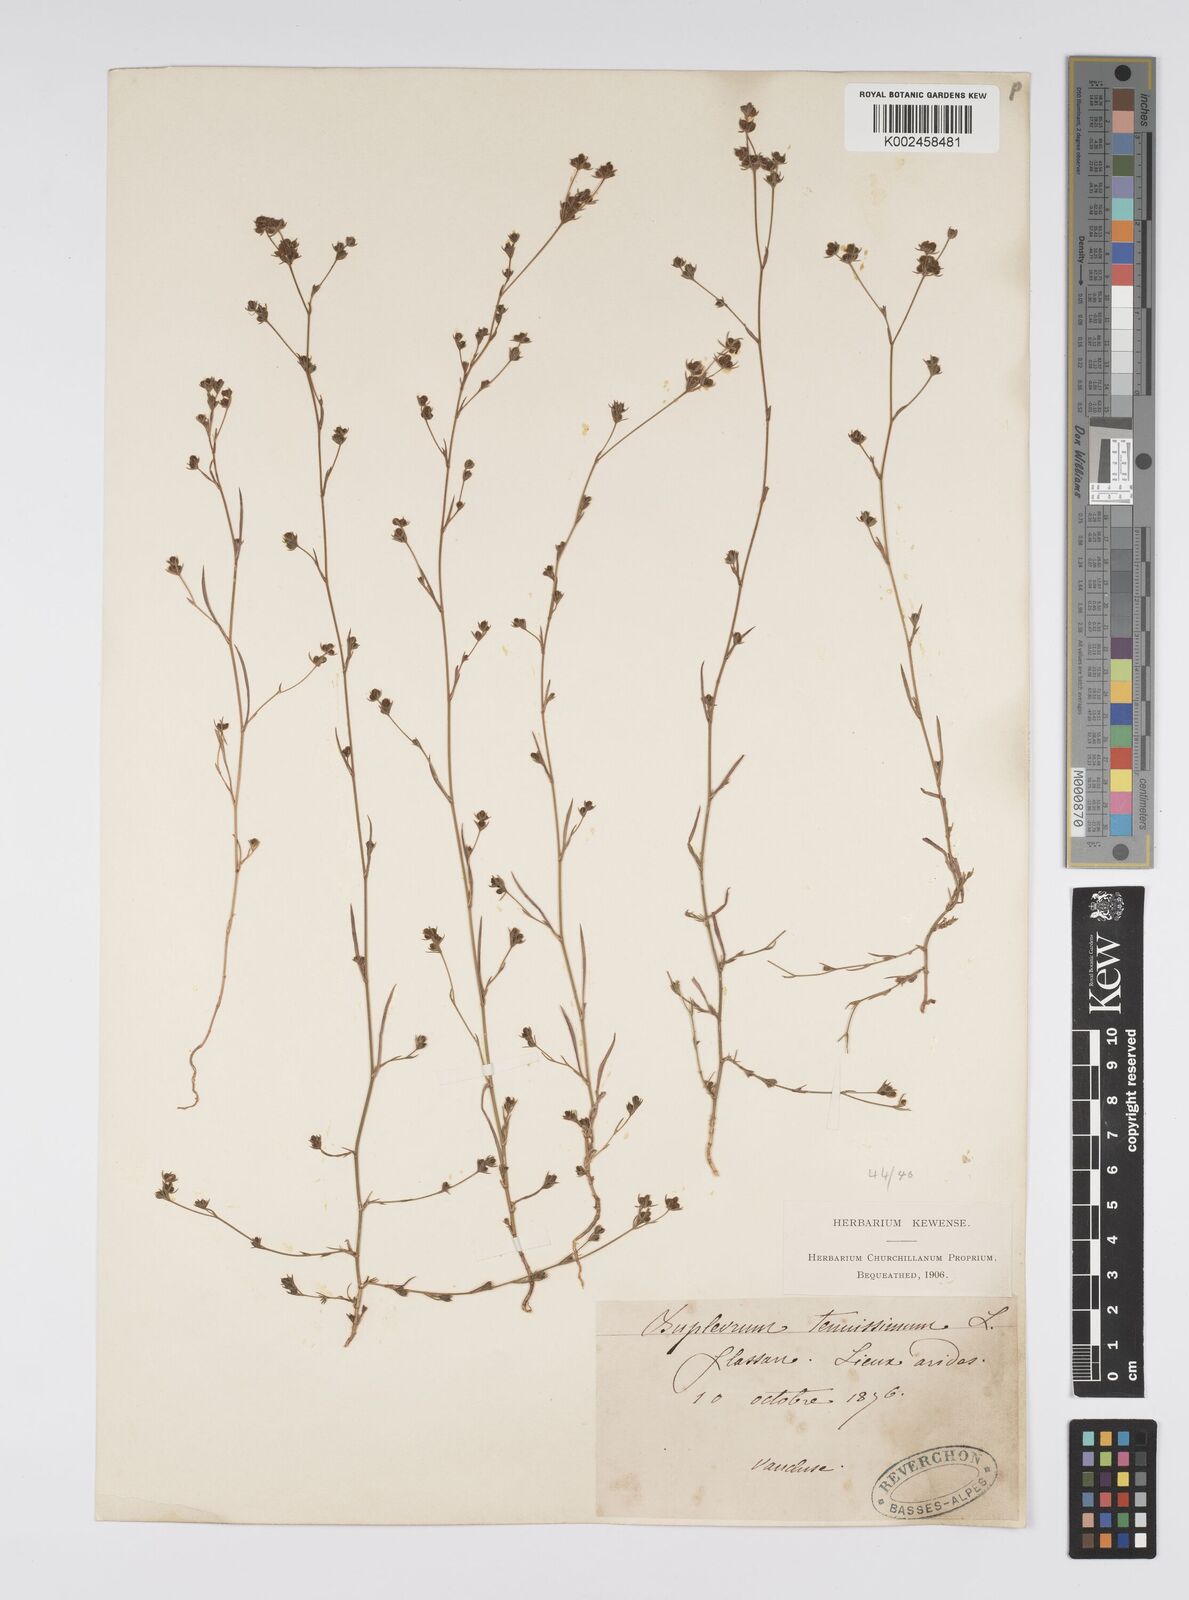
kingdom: Plantae
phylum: Tracheophyta
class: Magnoliopsida
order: Apiales
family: Apiaceae
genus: Bupleurum
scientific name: Bupleurum tenuissimum
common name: Slender hare's-ear
